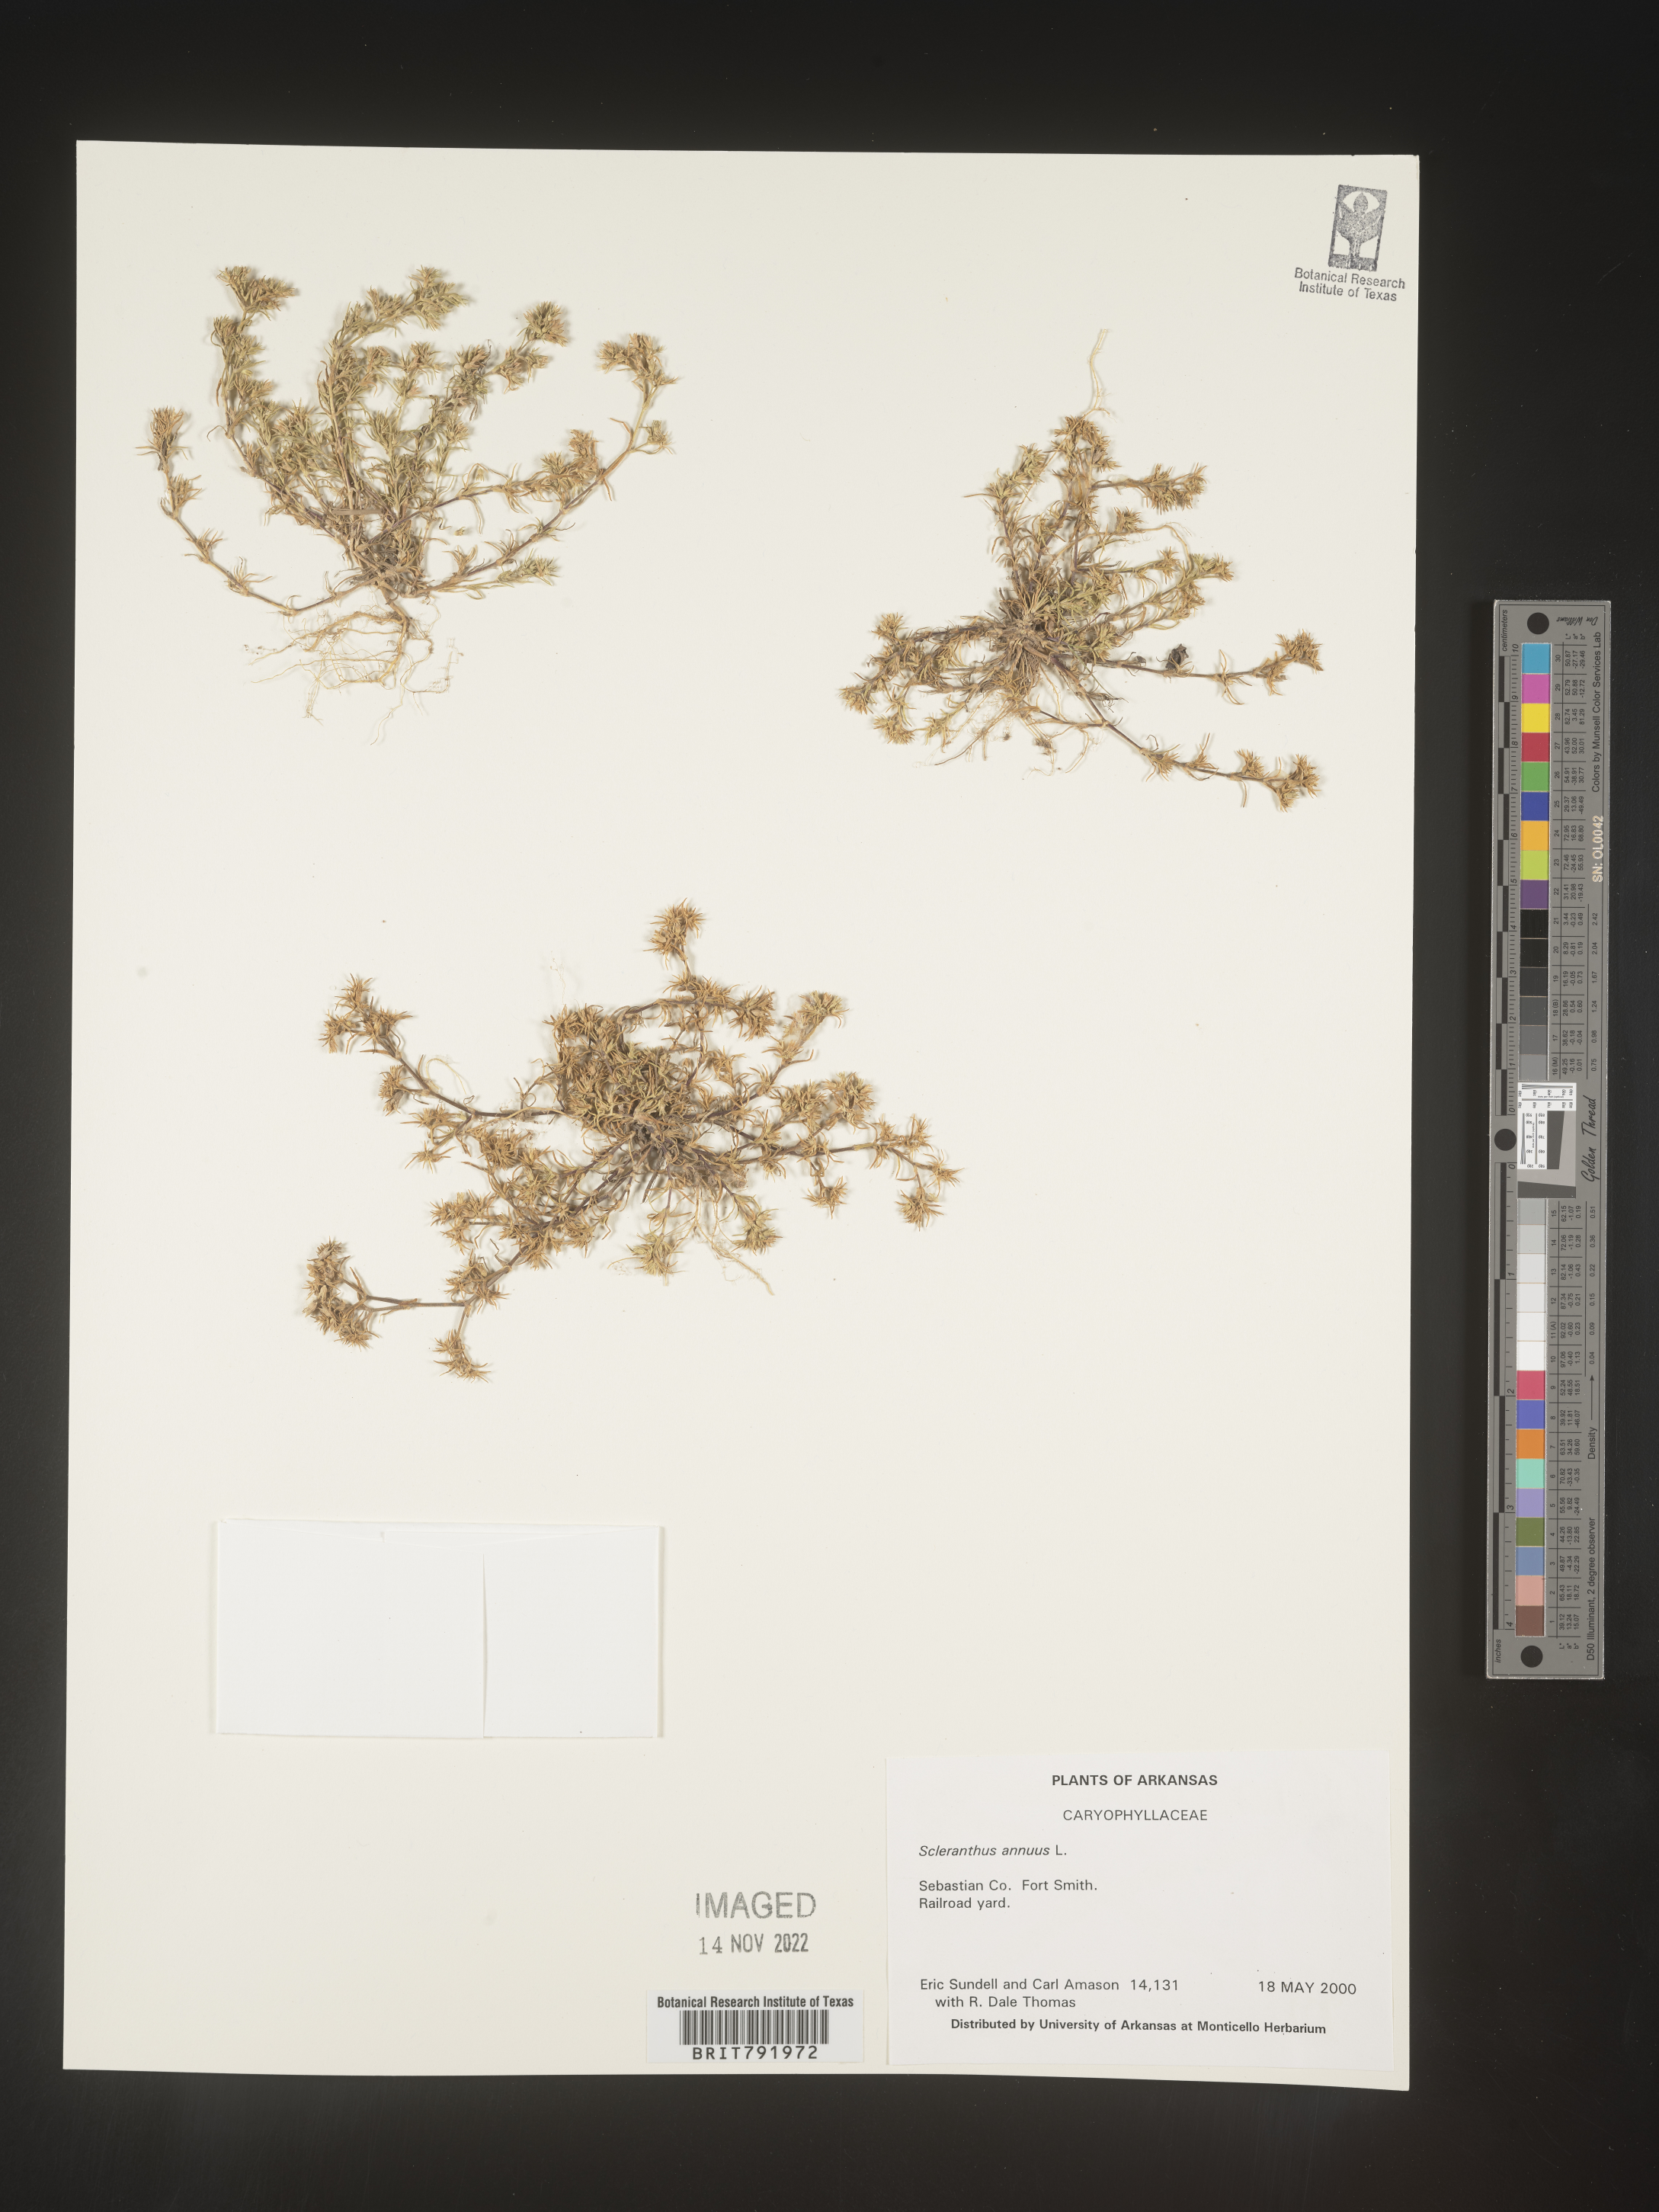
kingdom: Plantae
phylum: Tracheophyta
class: Magnoliopsida
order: Caryophyllales
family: Caryophyllaceae
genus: Scleranthus
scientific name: Scleranthus
